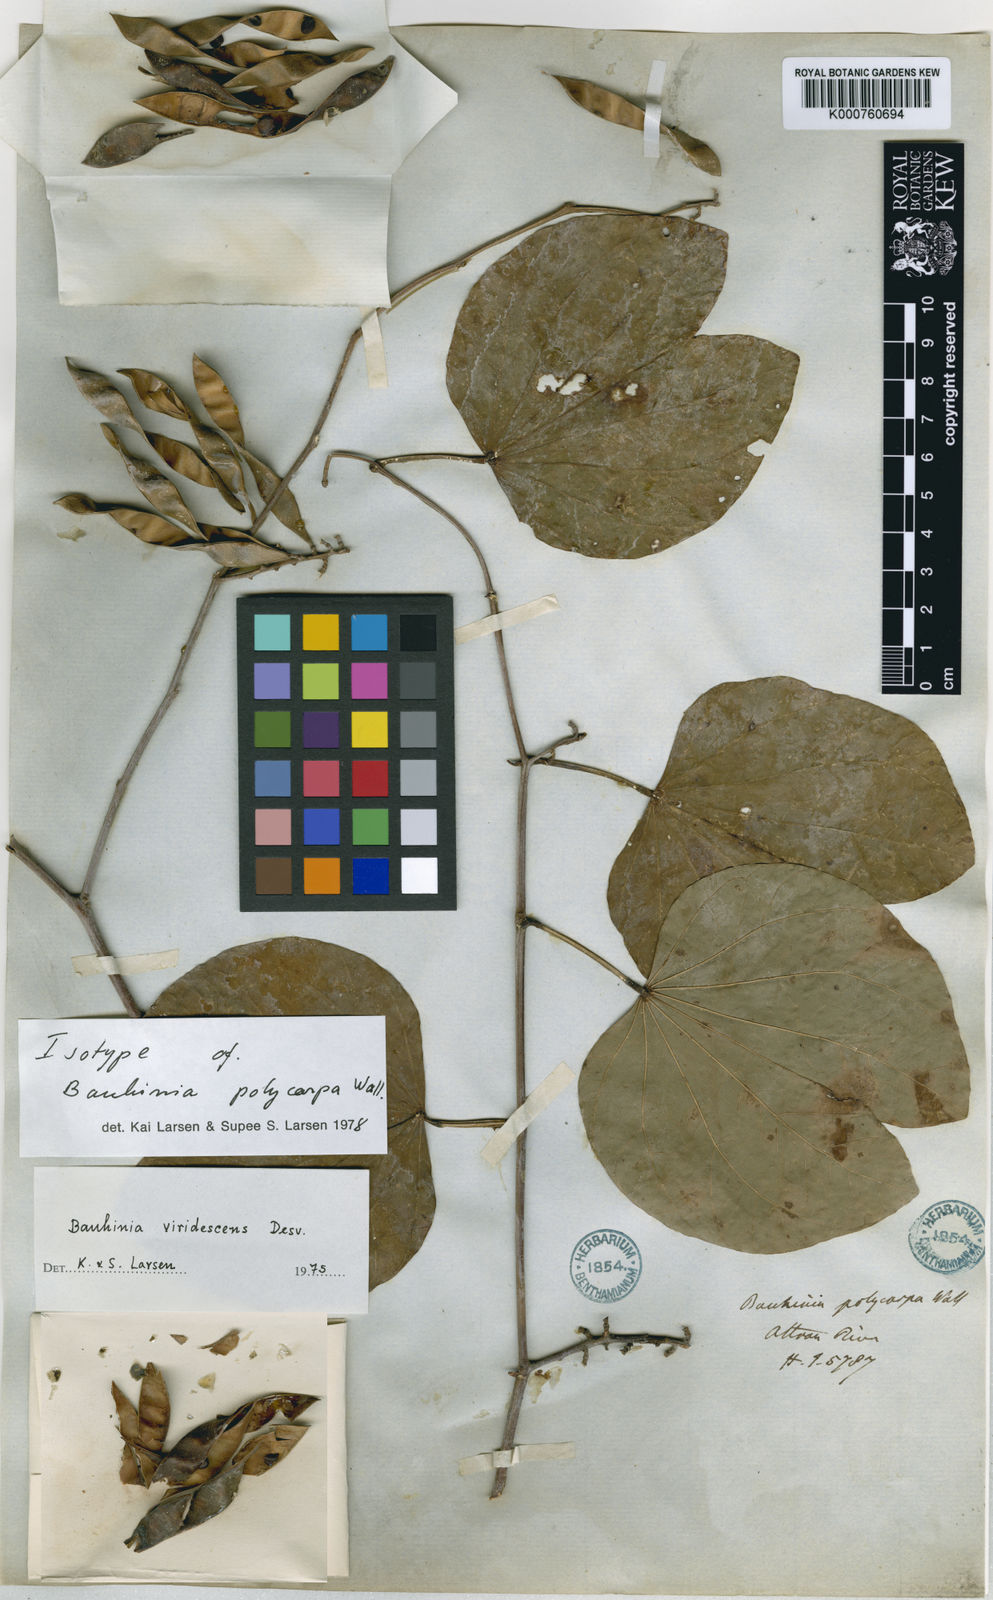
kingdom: Plantae
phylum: Tracheophyta
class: Magnoliopsida
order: Fabales
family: Fabaceae
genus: Bauhinia
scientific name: Bauhinia viridescens
